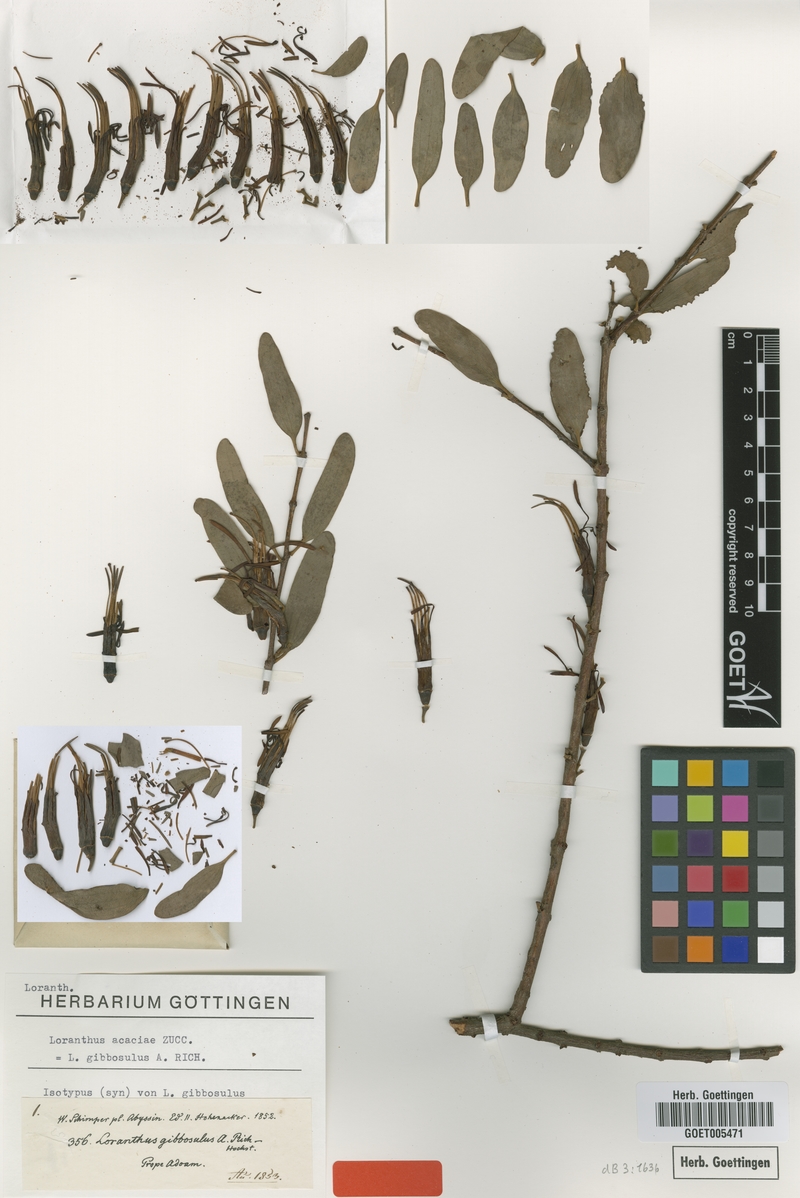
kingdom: Plantae
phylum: Tracheophyta
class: Magnoliopsida
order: Santalales
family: Loranthaceae
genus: Plicosepalus
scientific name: Plicosepalus acaciae
